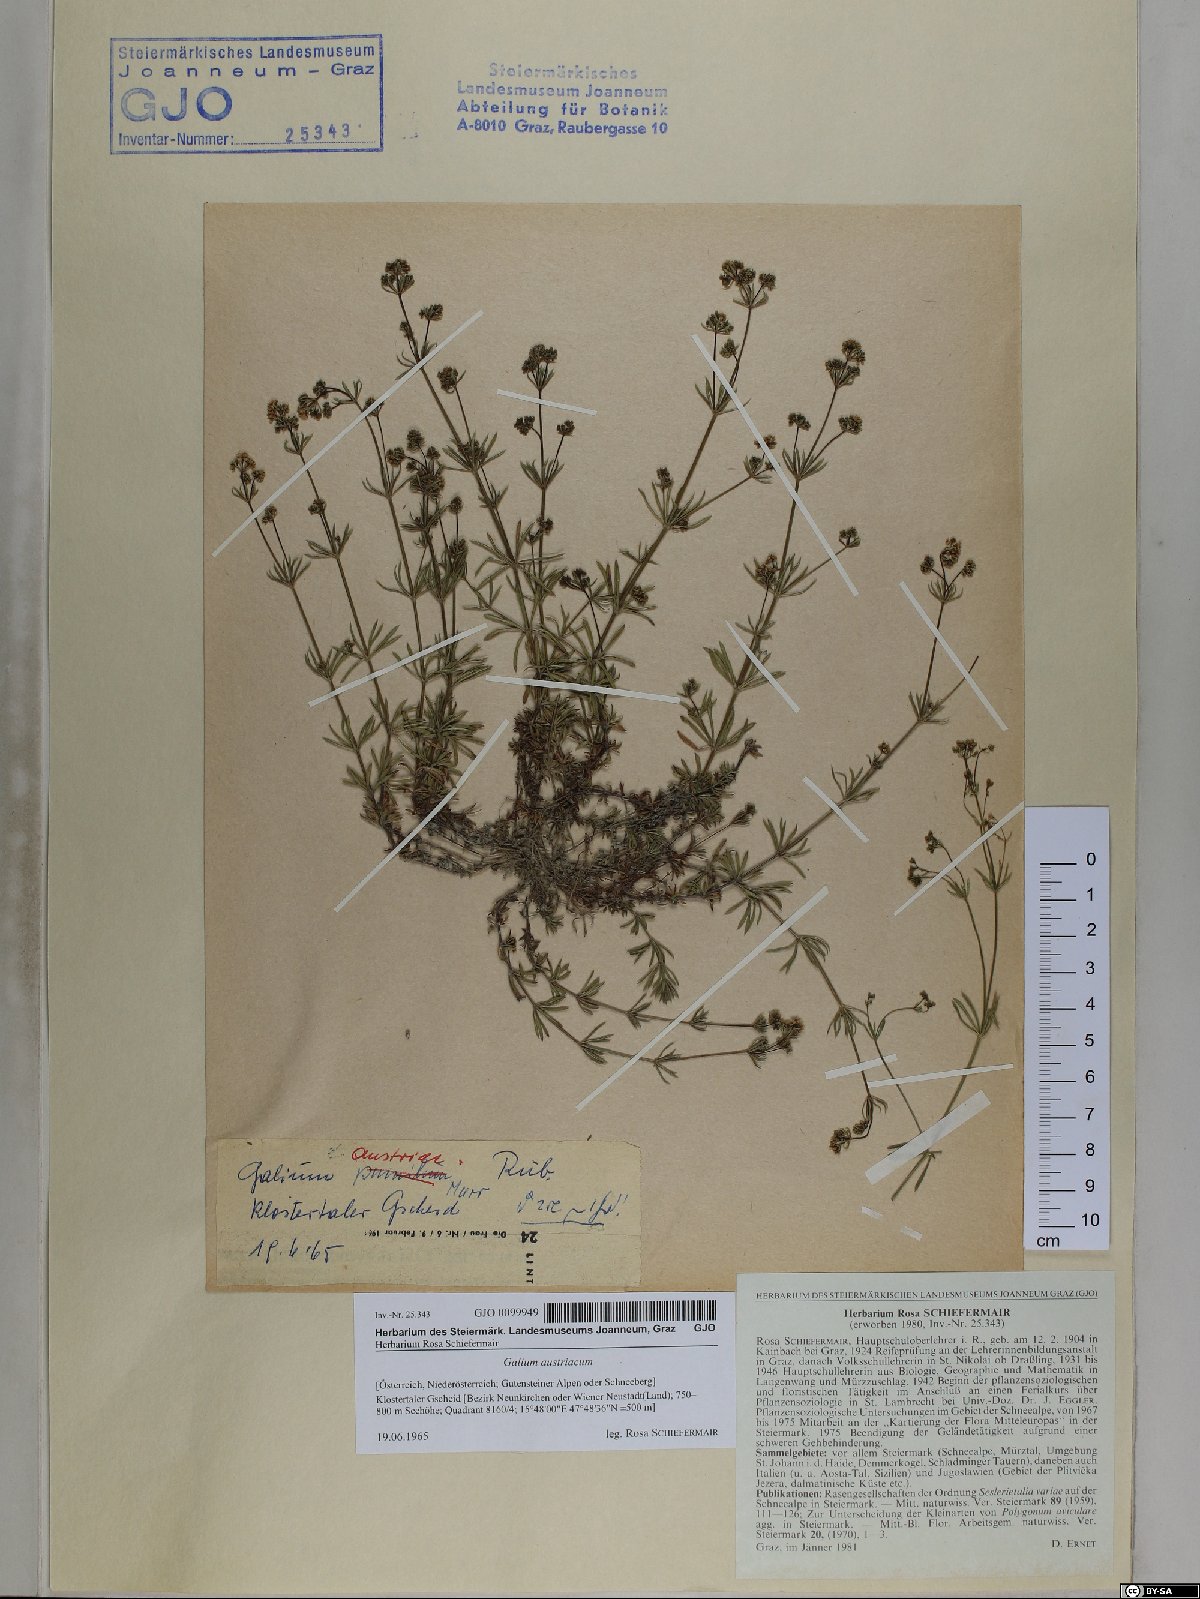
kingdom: Plantae
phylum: Tracheophyta
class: Magnoliopsida
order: Gentianales
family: Rubiaceae
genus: Galium
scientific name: Galium austriacum
